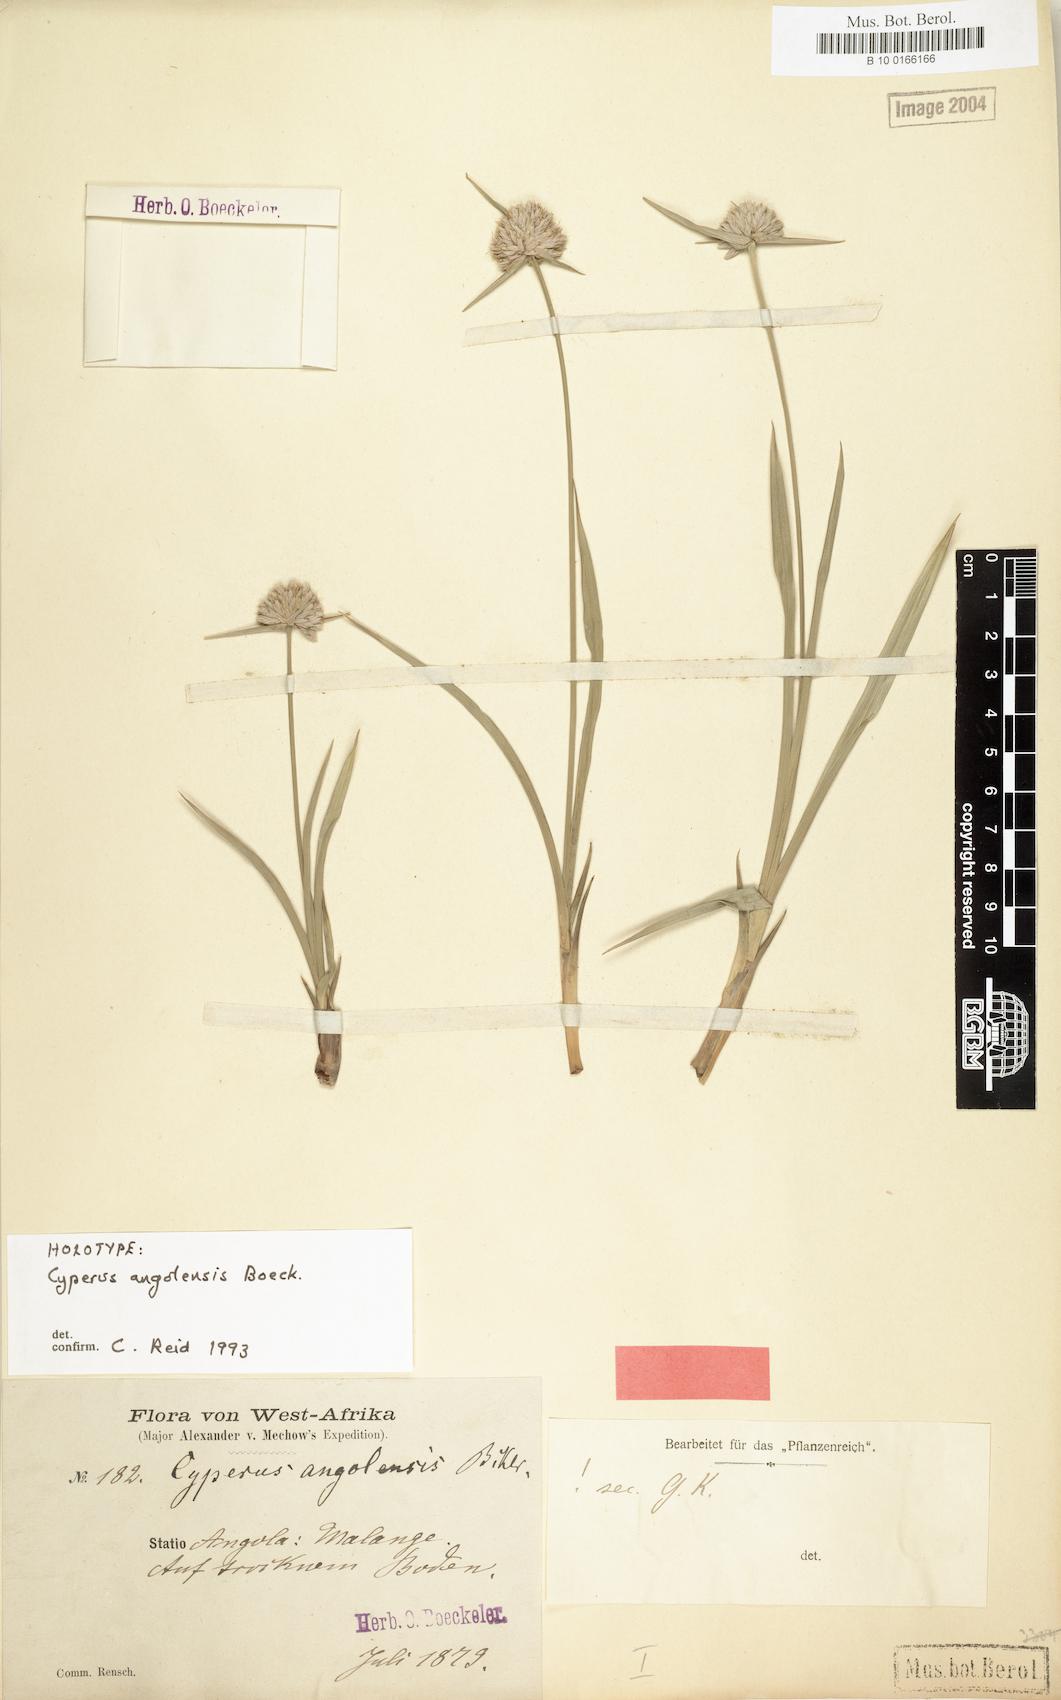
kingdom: Plantae
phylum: Tracheophyta
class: Liliopsida
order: Poales
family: Cyperaceae
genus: Cyperus
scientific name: Cyperus angolensis
